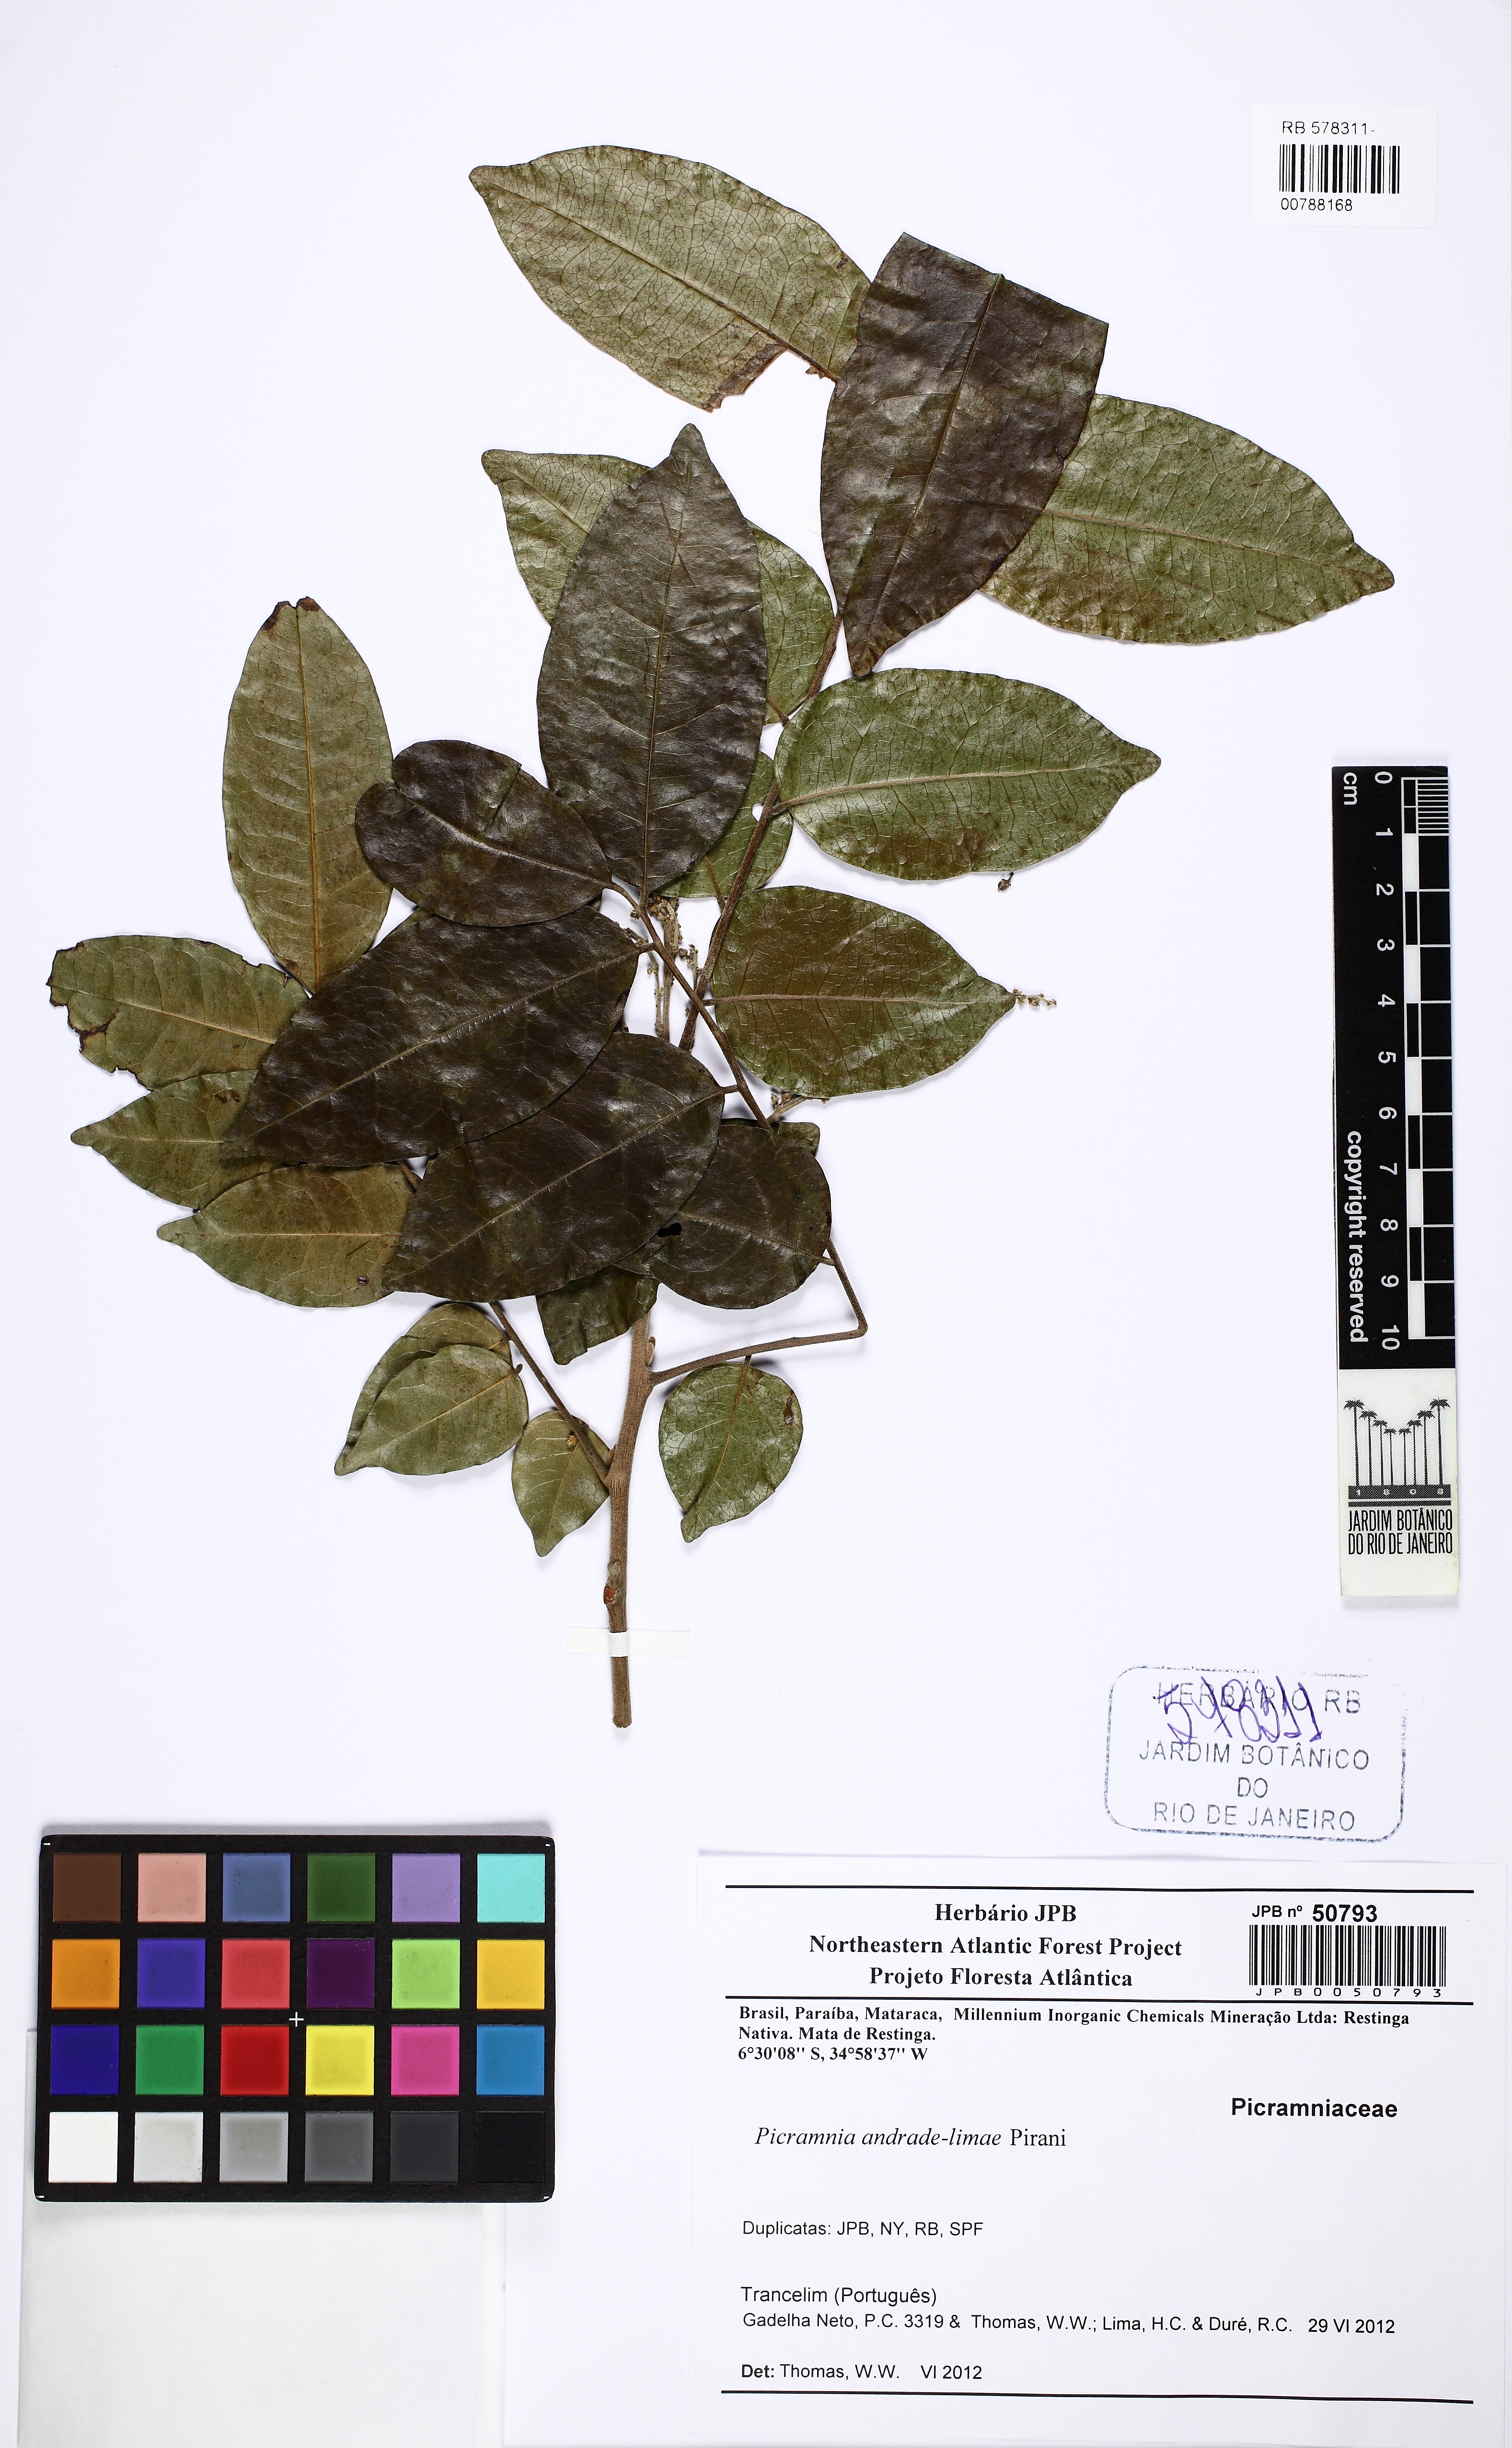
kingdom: Plantae
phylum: Tracheophyta
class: Magnoliopsida
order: Picramniales
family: Picramniaceae
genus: Picramnia
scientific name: Picramnia andrade-limae
